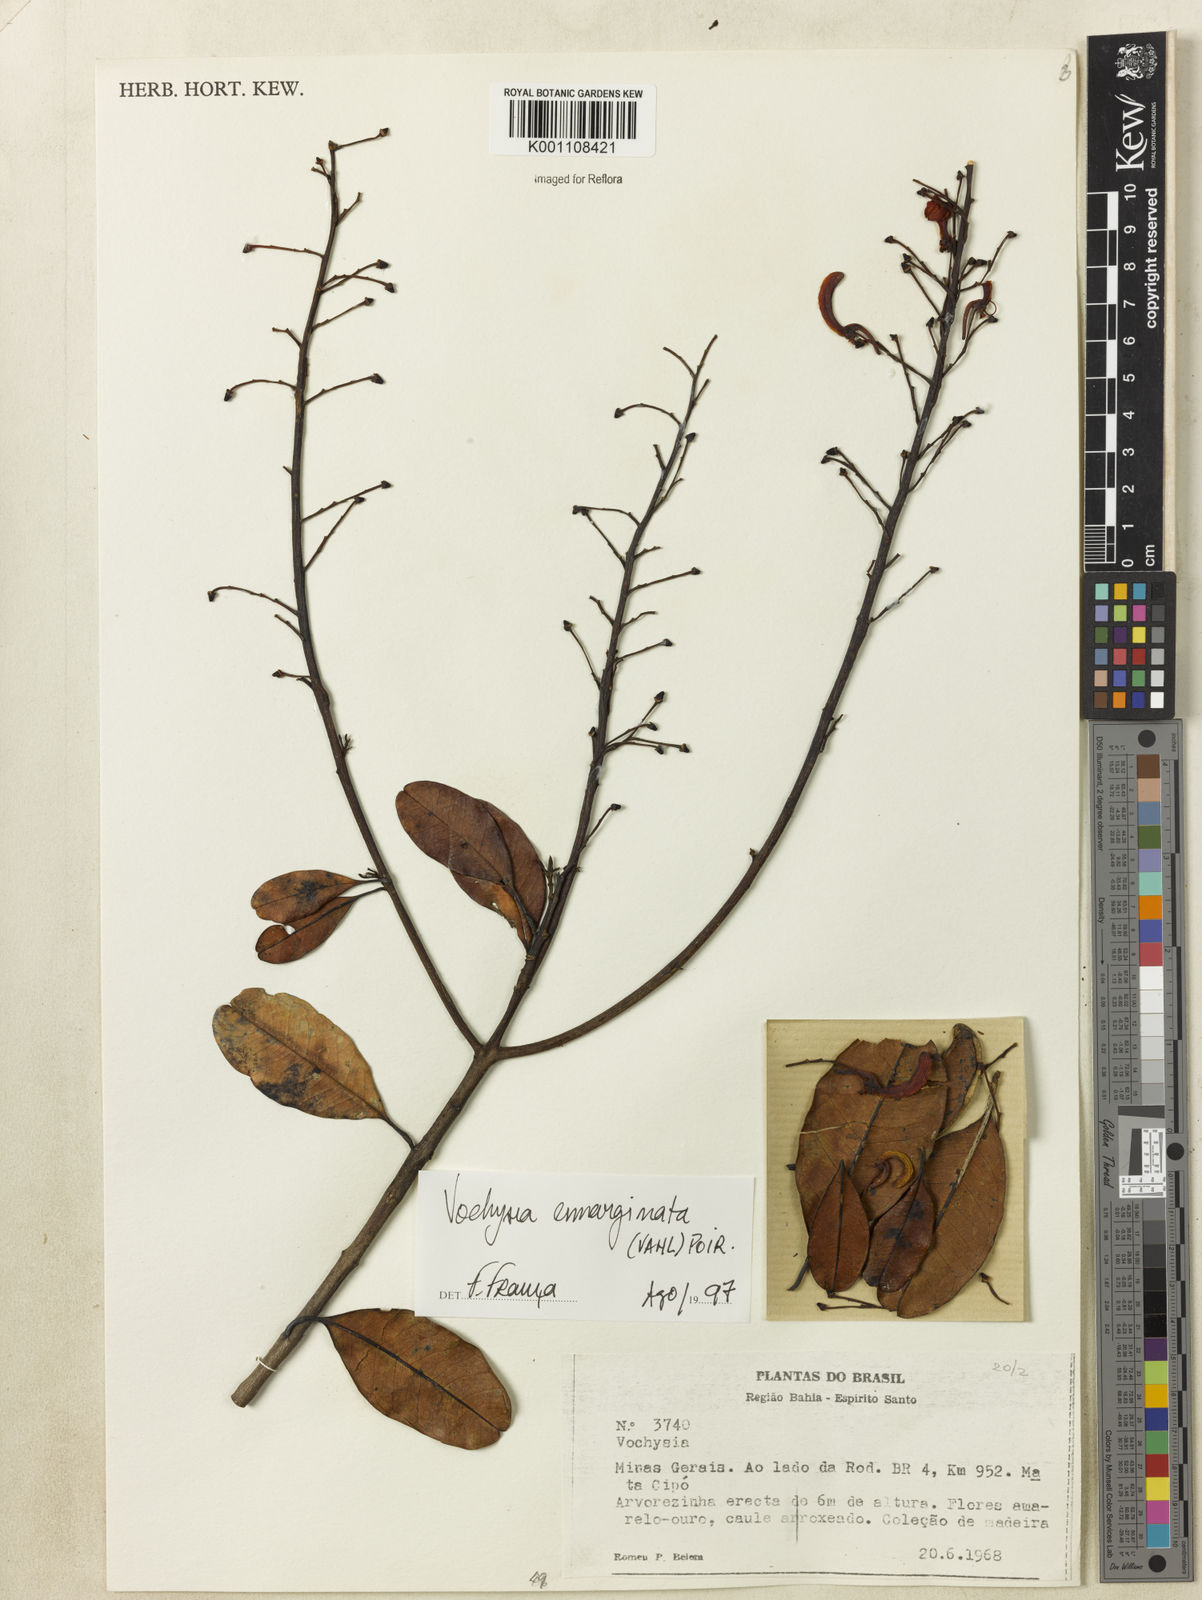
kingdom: Plantae
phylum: Tracheophyta
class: Magnoliopsida
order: Myrtales
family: Vochysiaceae
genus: Vochysia
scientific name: Vochysia
